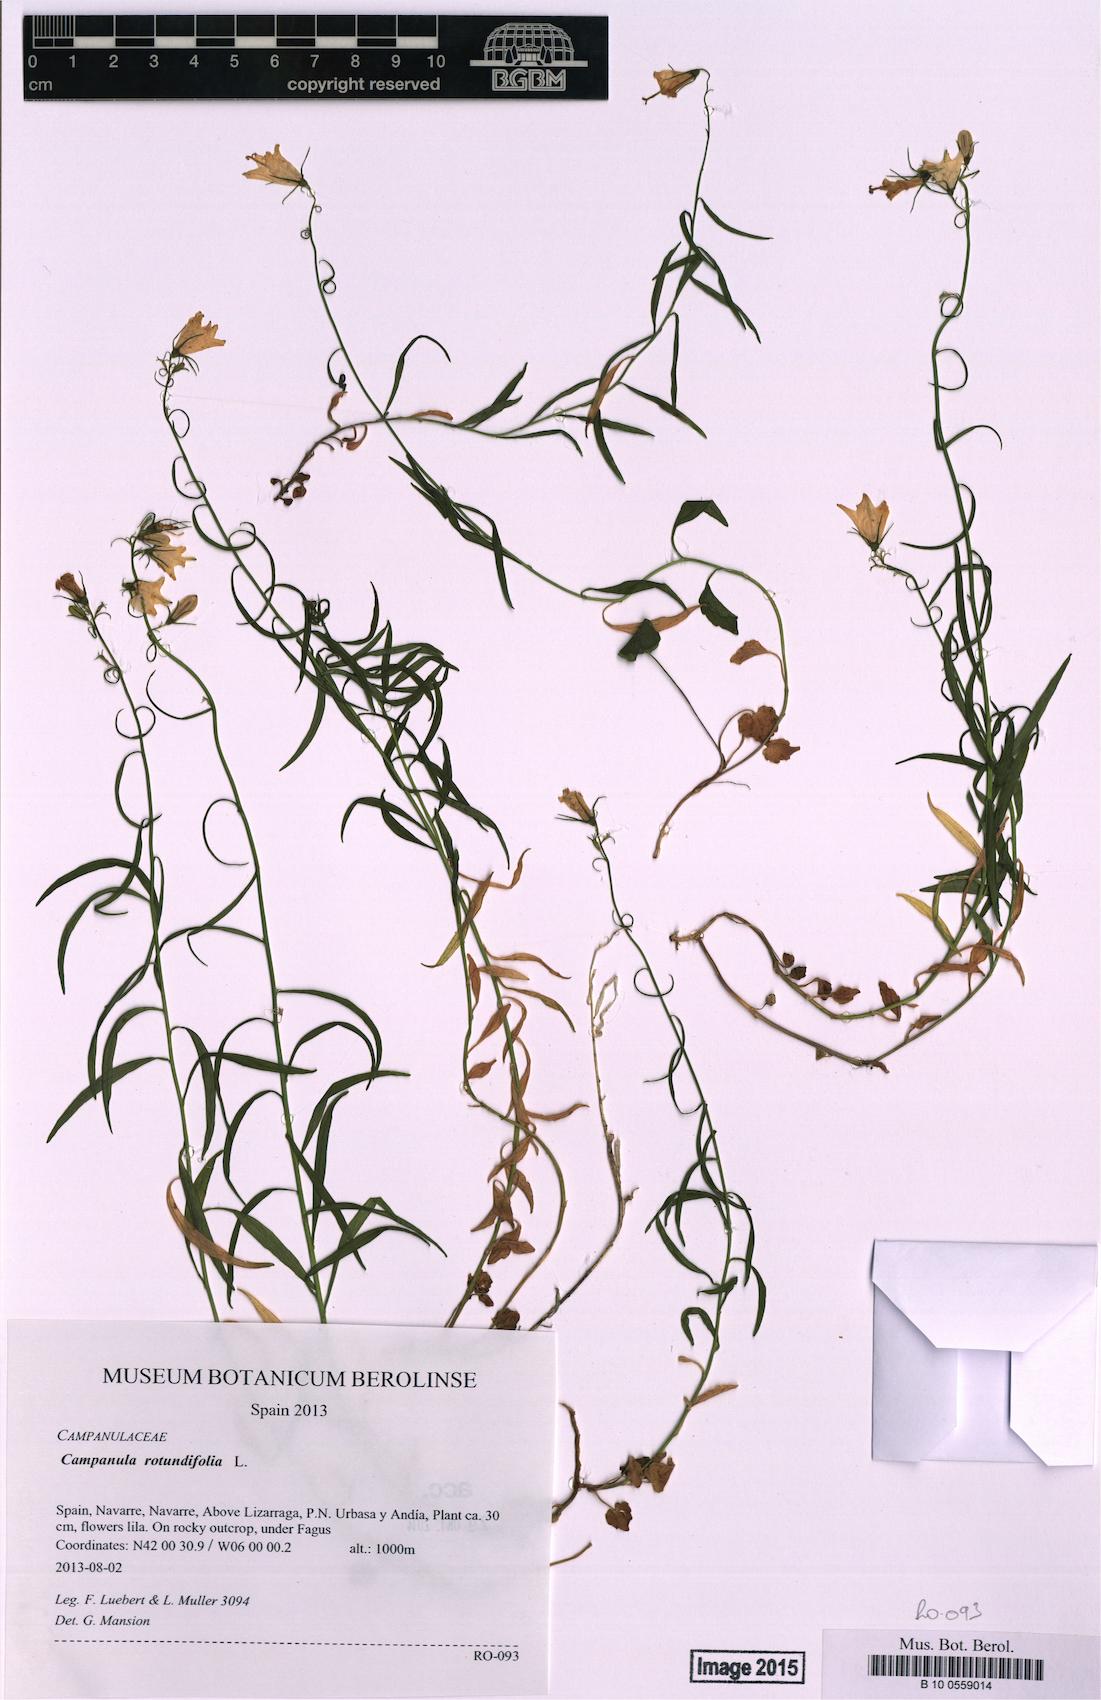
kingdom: Plantae
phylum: Tracheophyta
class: Magnoliopsida
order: Asterales
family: Campanulaceae
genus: Campanula
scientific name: Campanula rotundifolia
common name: Harebell
